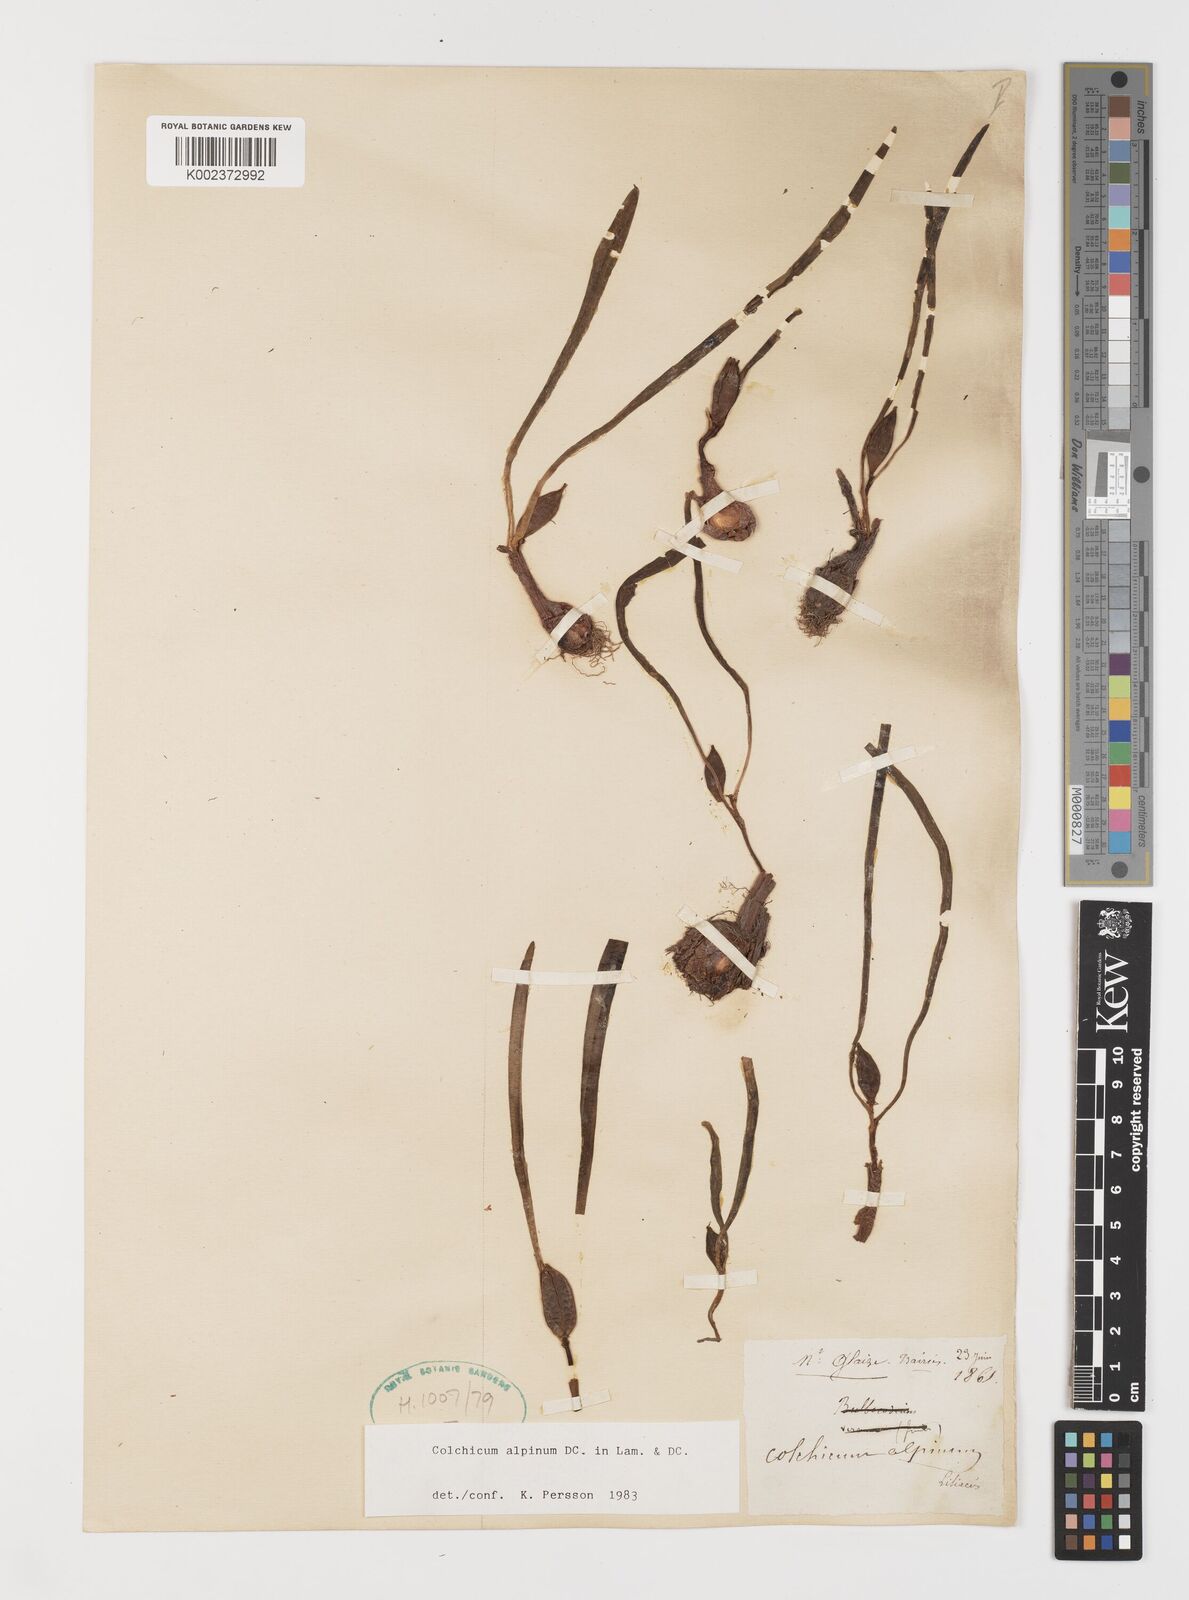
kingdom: Plantae
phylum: Tracheophyta
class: Liliopsida
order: Liliales
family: Colchicaceae
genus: Colchicum
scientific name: Colchicum alpinum
